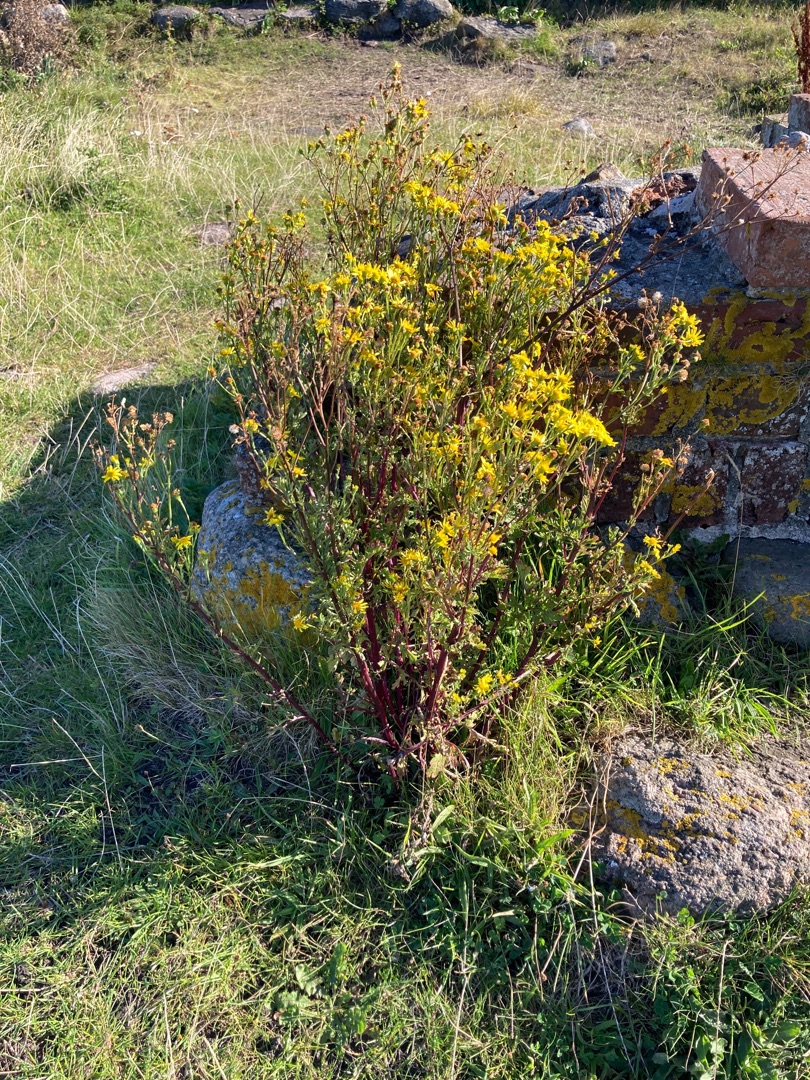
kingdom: Plantae
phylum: Tracheophyta
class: Magnoliopsida
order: Asterales
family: Asteraceae
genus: Jacobaea
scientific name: Jacobaea vulgaris
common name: Eng-brandbæger
